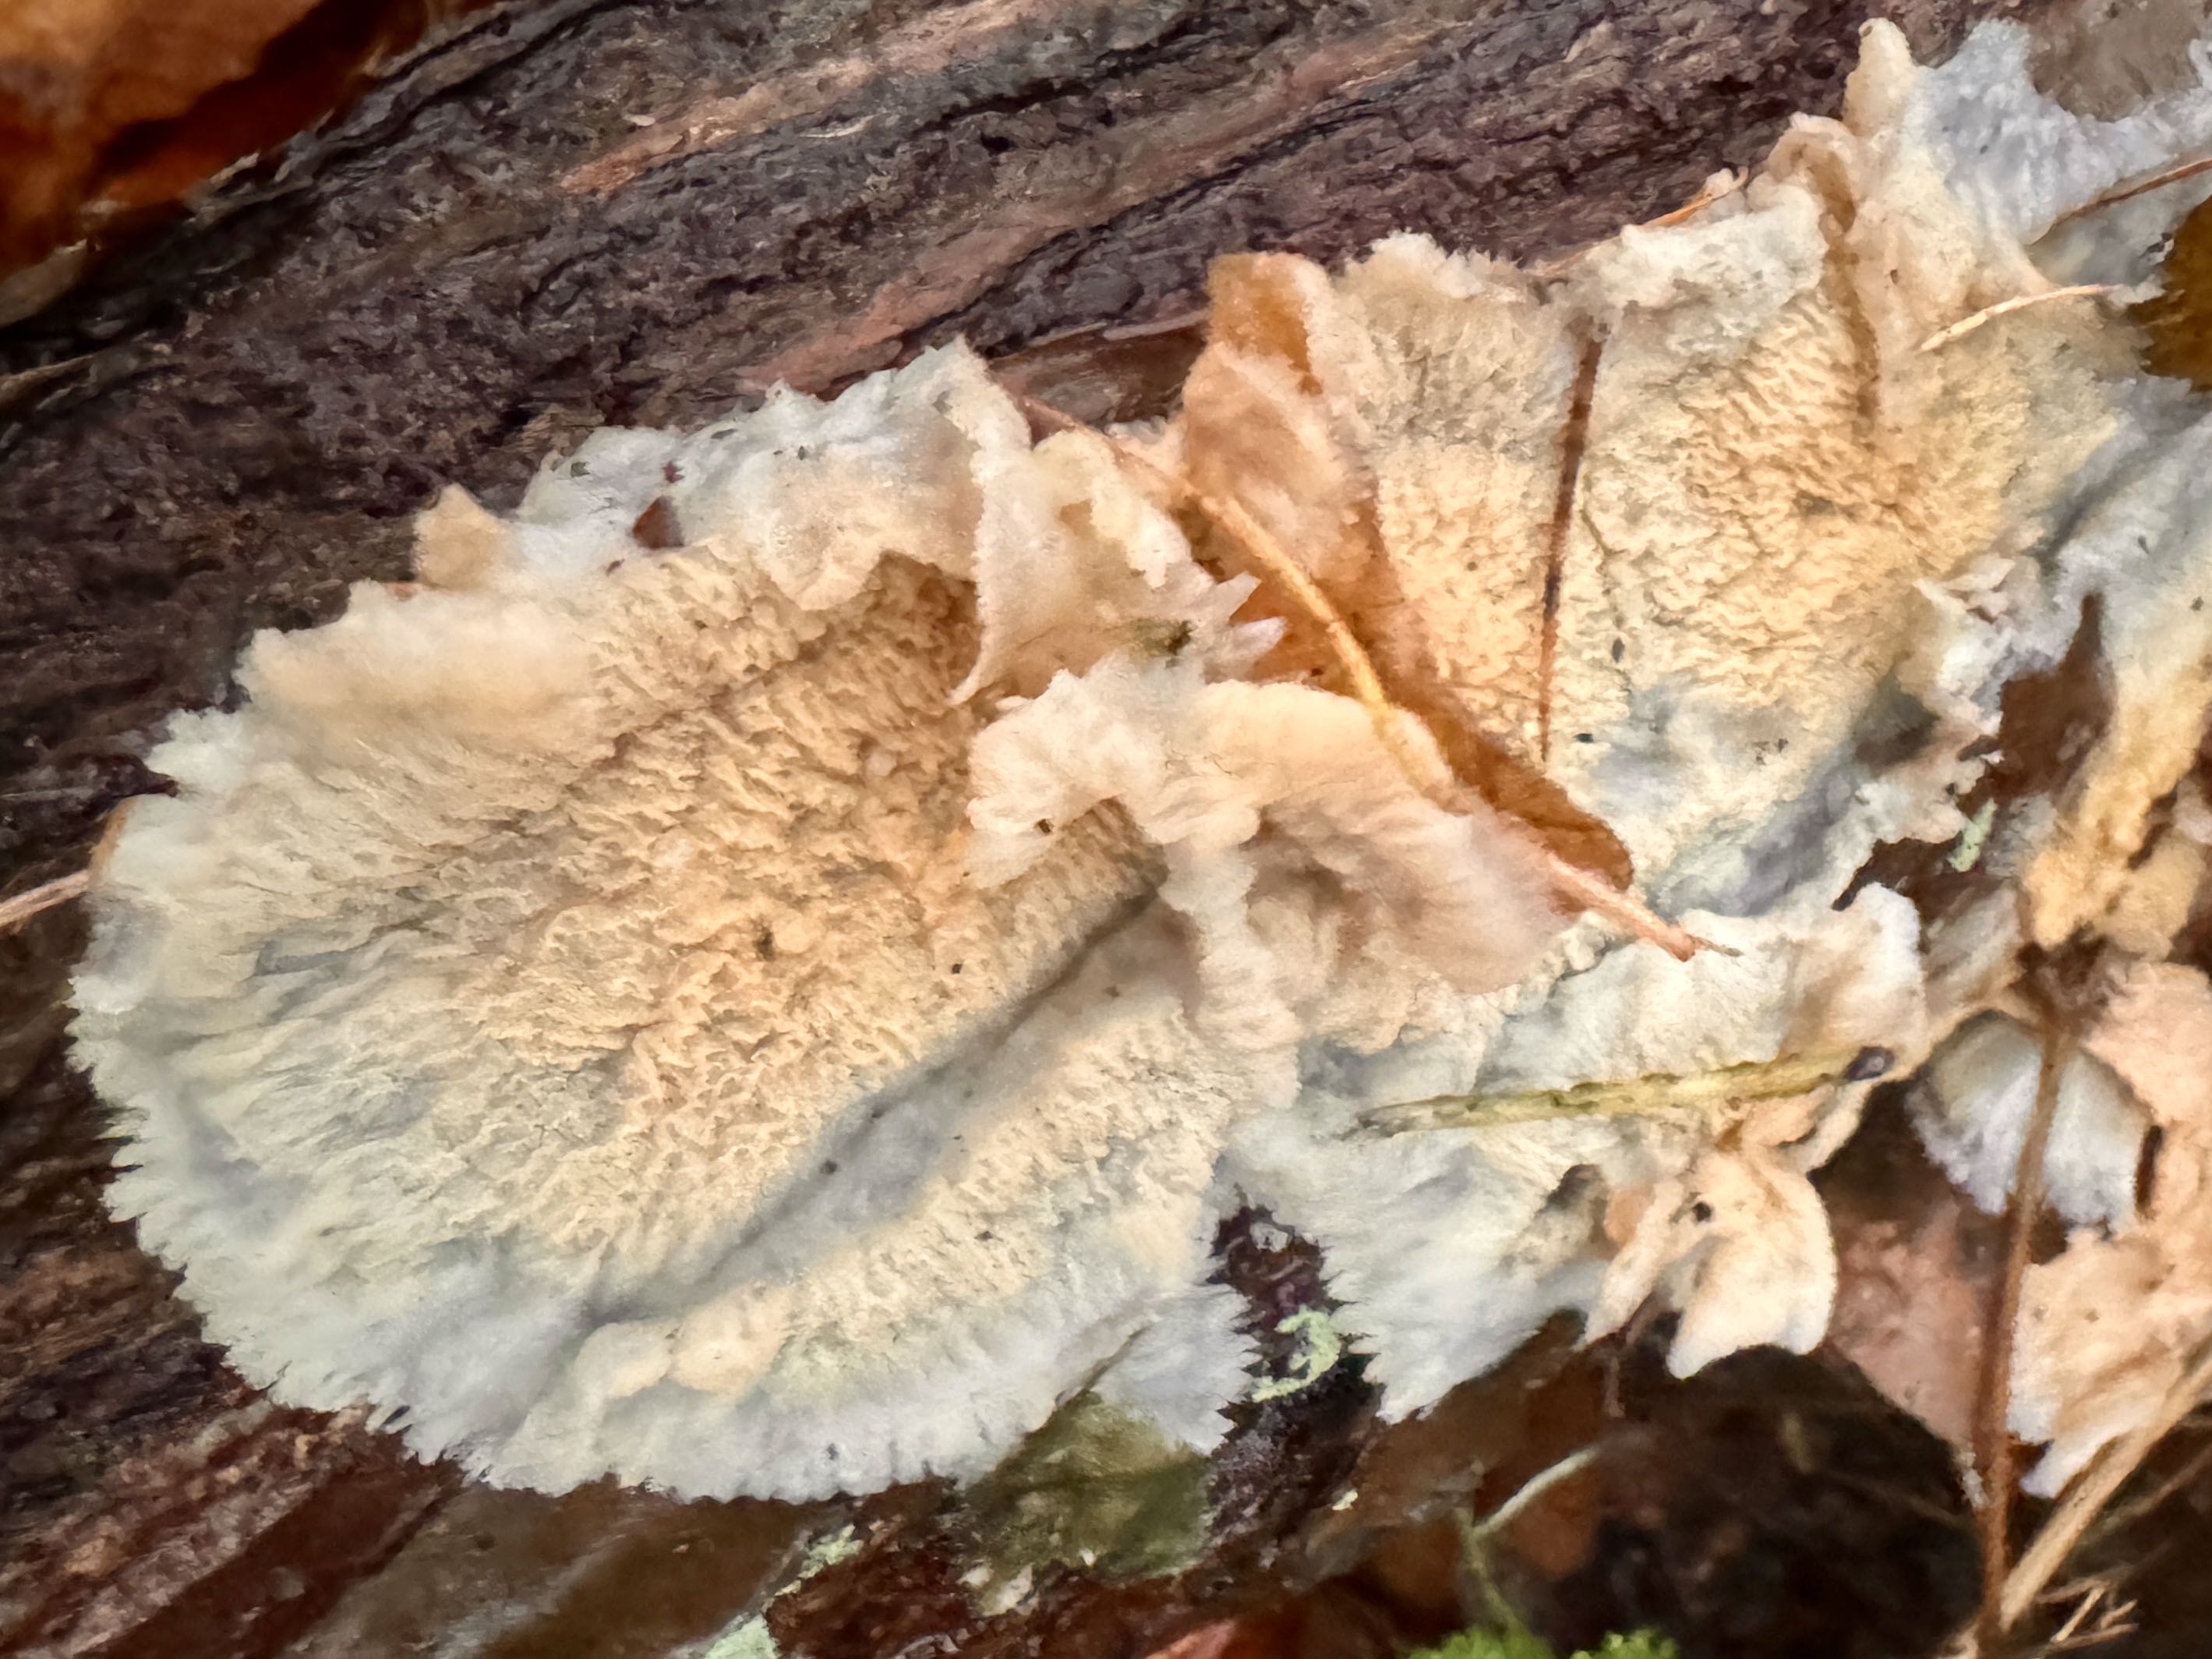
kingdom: Fungi
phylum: Basidiomycota
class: Agaricomycetes
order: Polyporales
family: Meruliaceae
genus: Phlebia
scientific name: Phlebia tremellosa
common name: bævrende åresvamp
